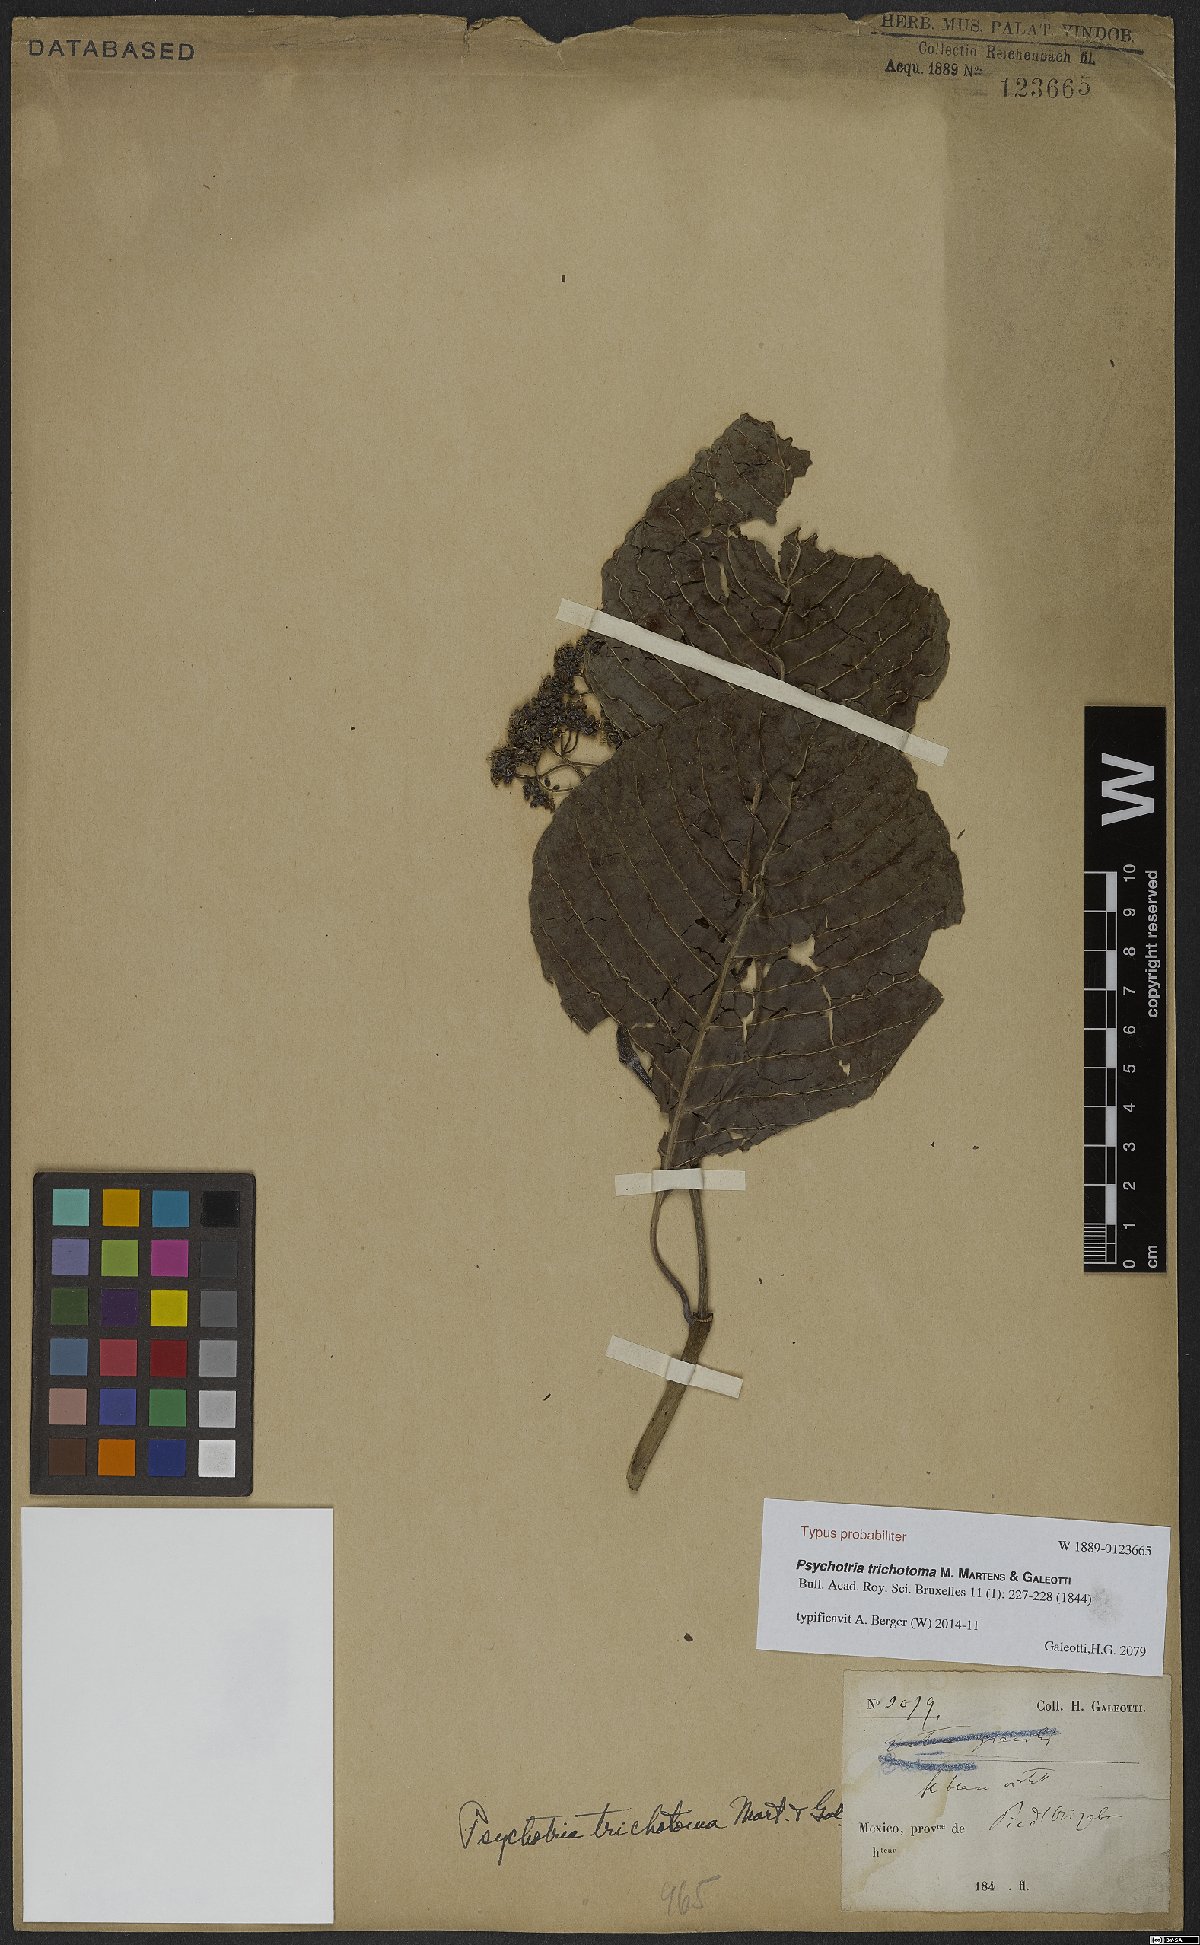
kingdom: Plantae
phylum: Tracheophyta
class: Magnoliopsida
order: Gentianales
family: Rubiaceae
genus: Psychotria
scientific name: Psychotria trichotoma
